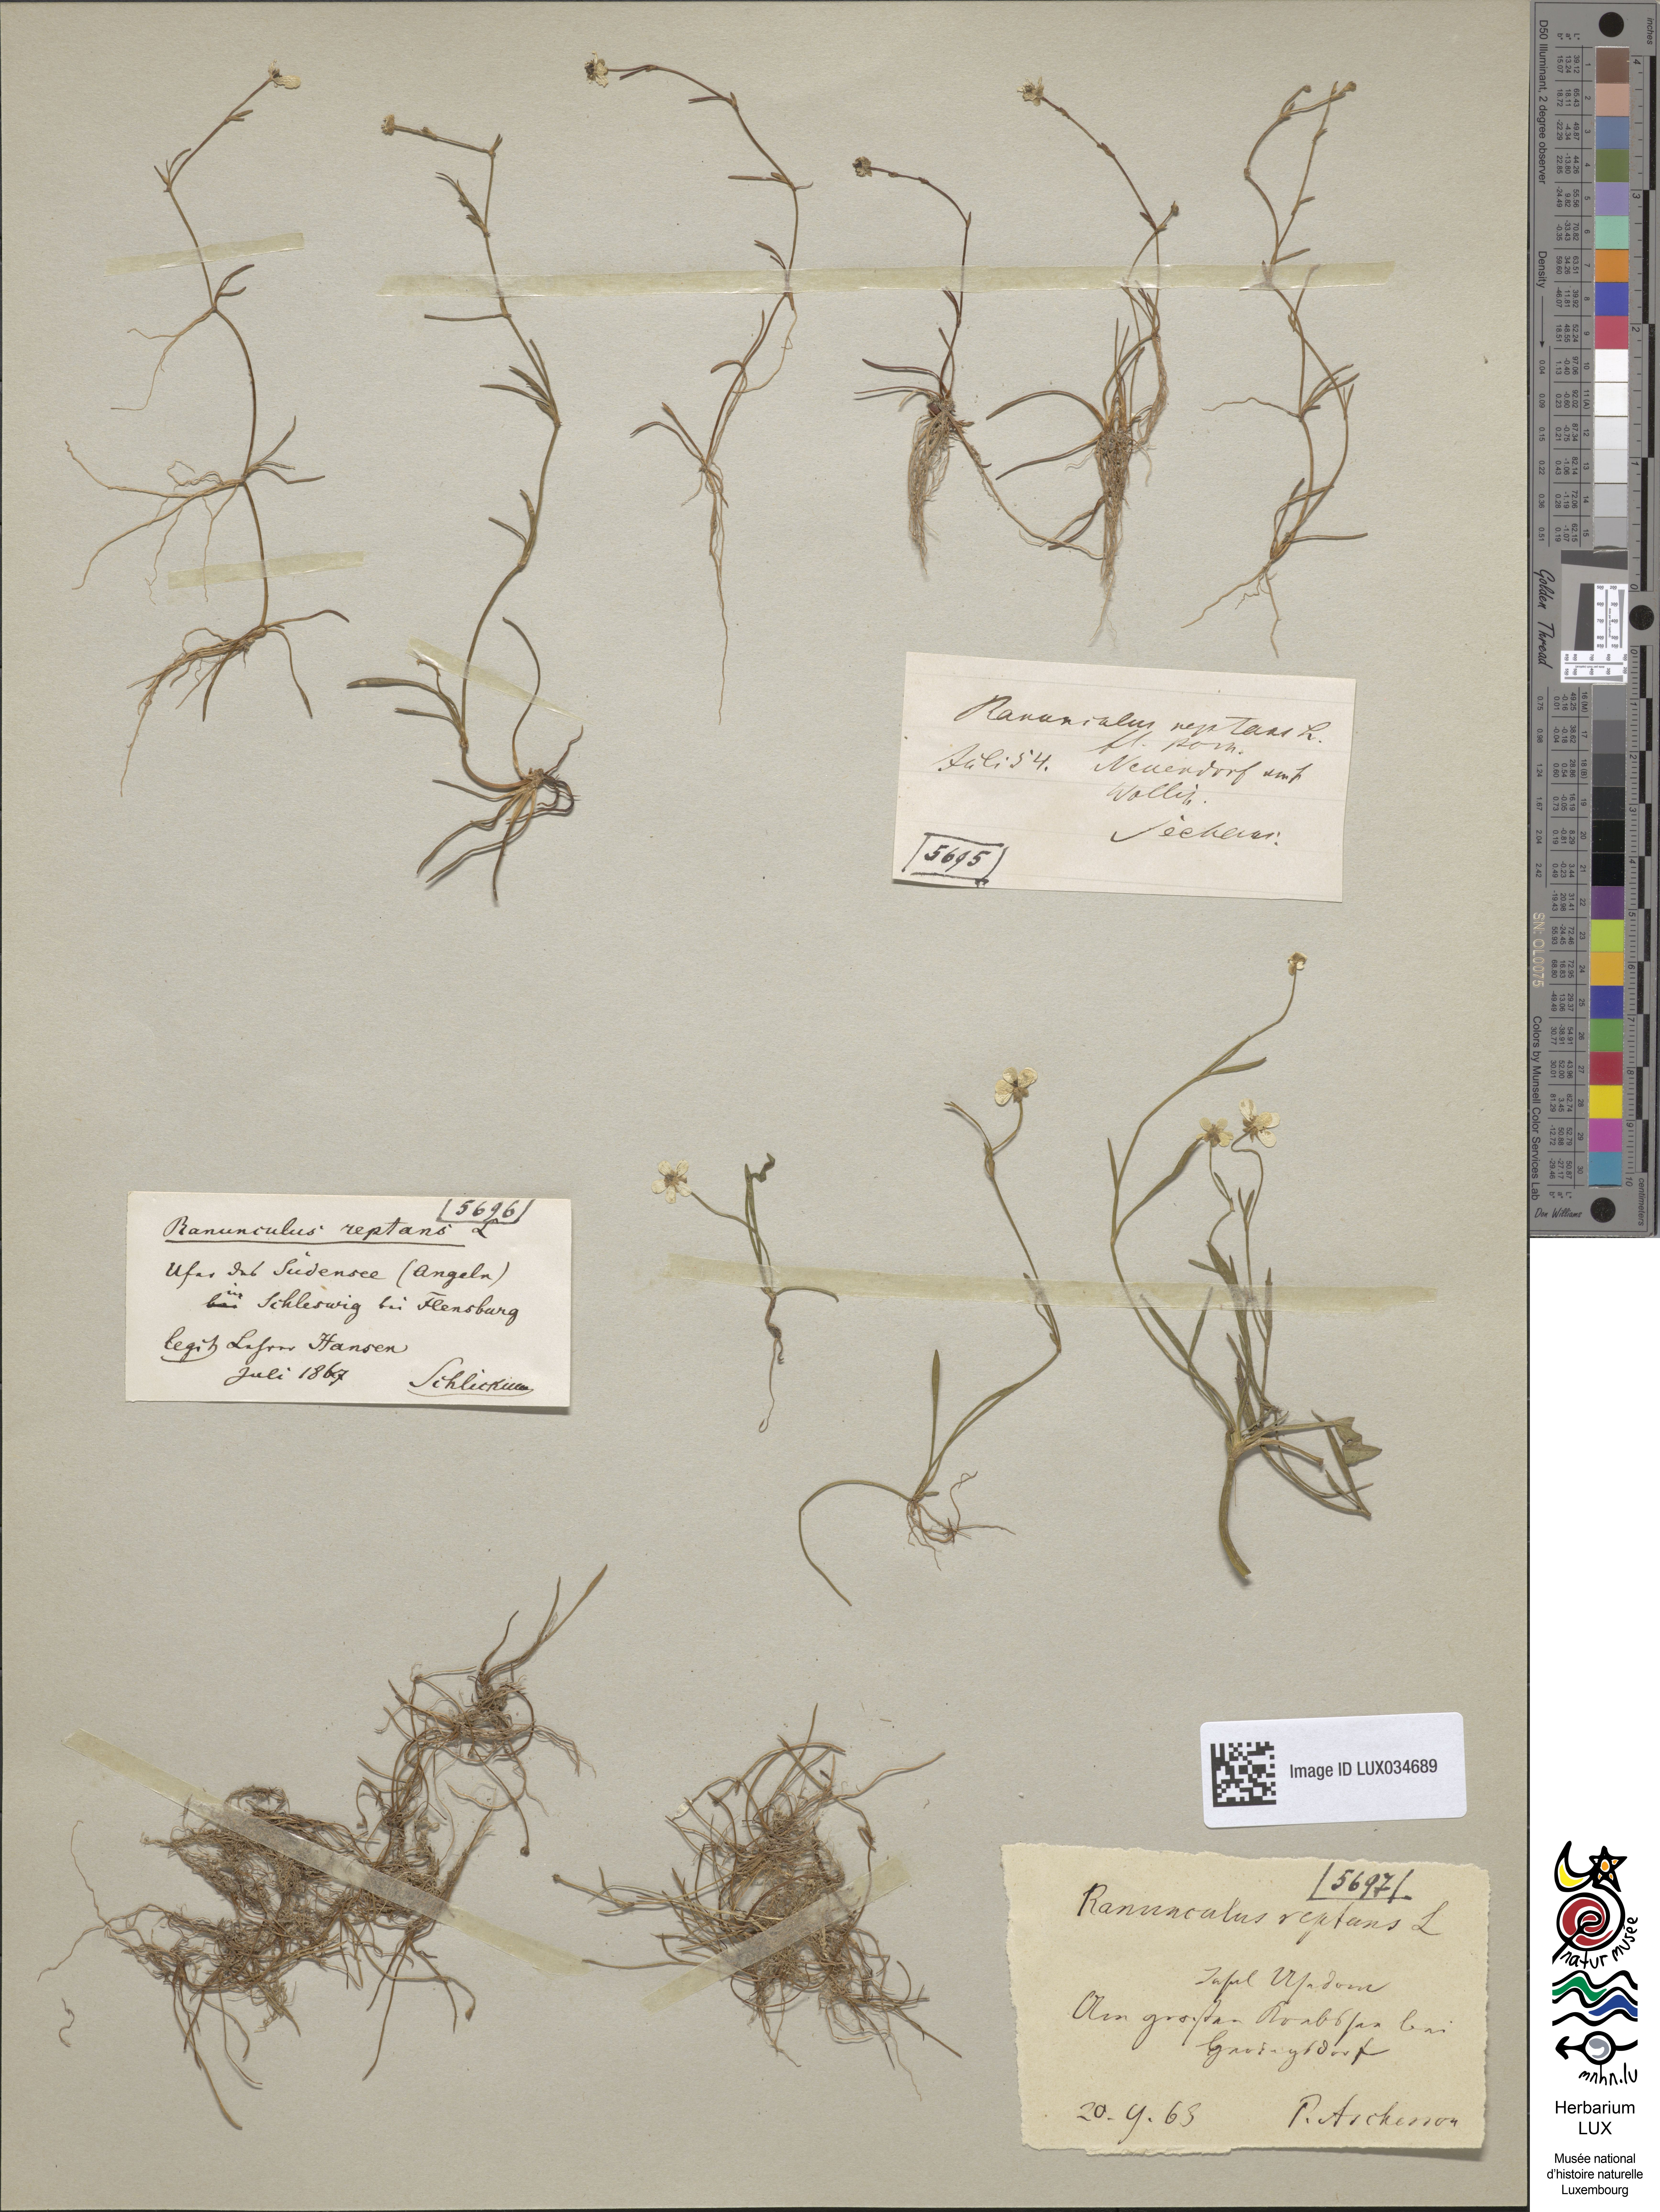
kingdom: Plantae
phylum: Tracheophyta
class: Magnoliopsida
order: Ranunculales
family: Ranunculaceae
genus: Ranunculus
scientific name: Ranunculus reptans
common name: Creeping spearwort
